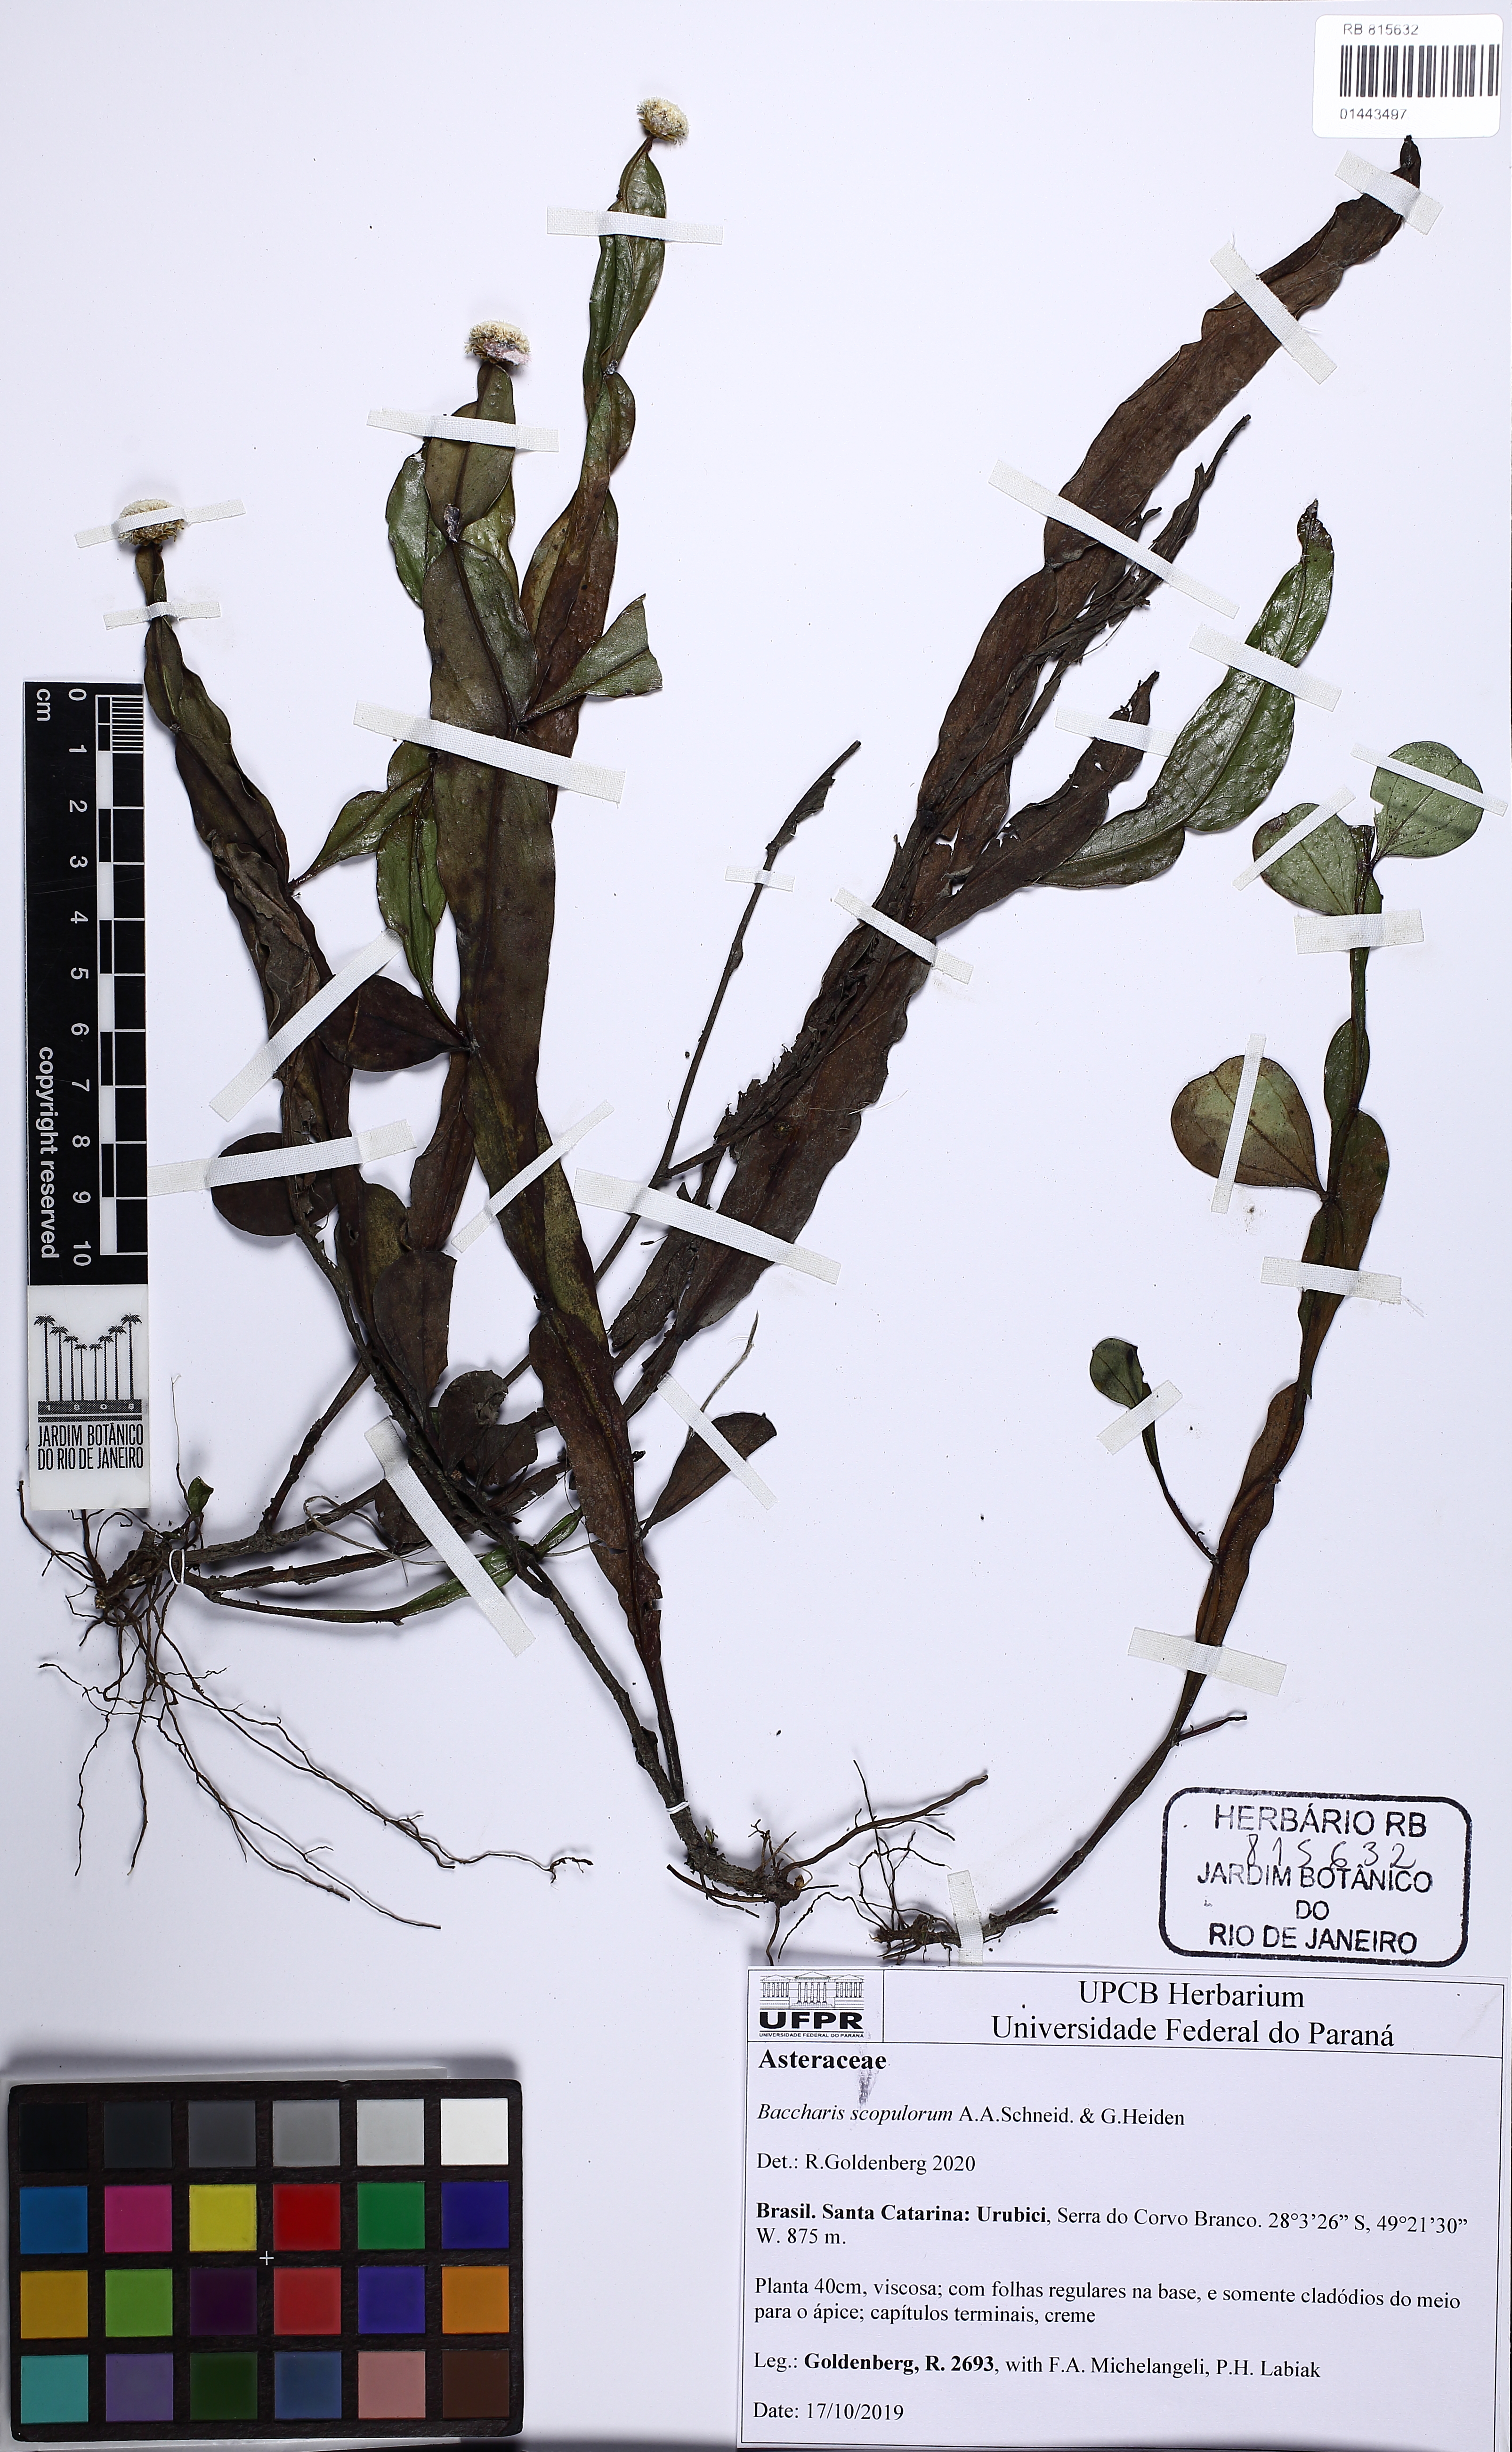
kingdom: Plantae
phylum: Tracheophyta
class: Magnoliopsida
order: Asterales
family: Asteraceae
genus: Baccharis
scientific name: Baccharis scopulorum
